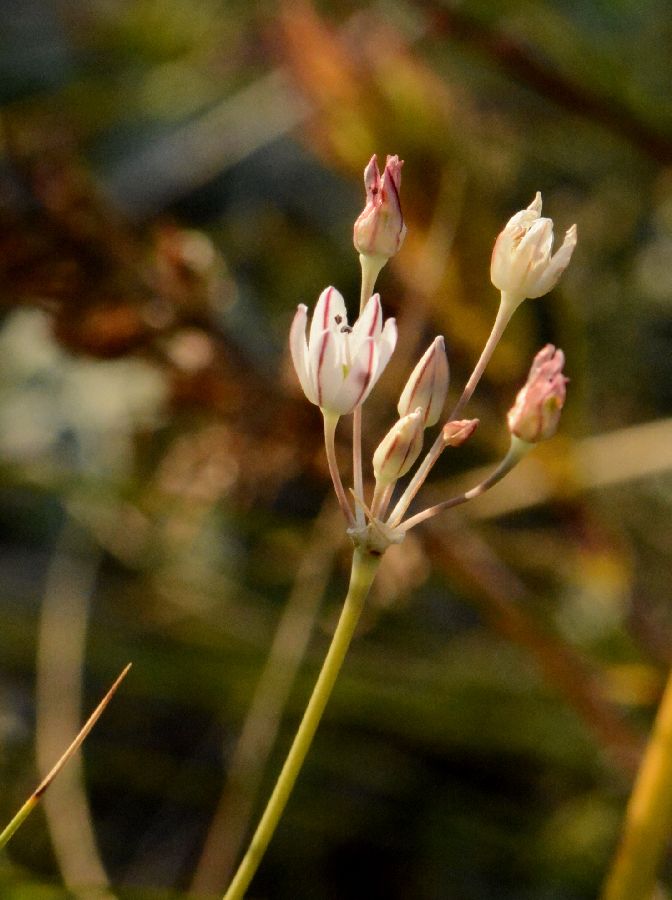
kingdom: Plantae
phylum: Tracheophyta
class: Liliopsida
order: Asparagales
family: Amaryllidaceae
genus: Allium
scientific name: Allium inaequale
